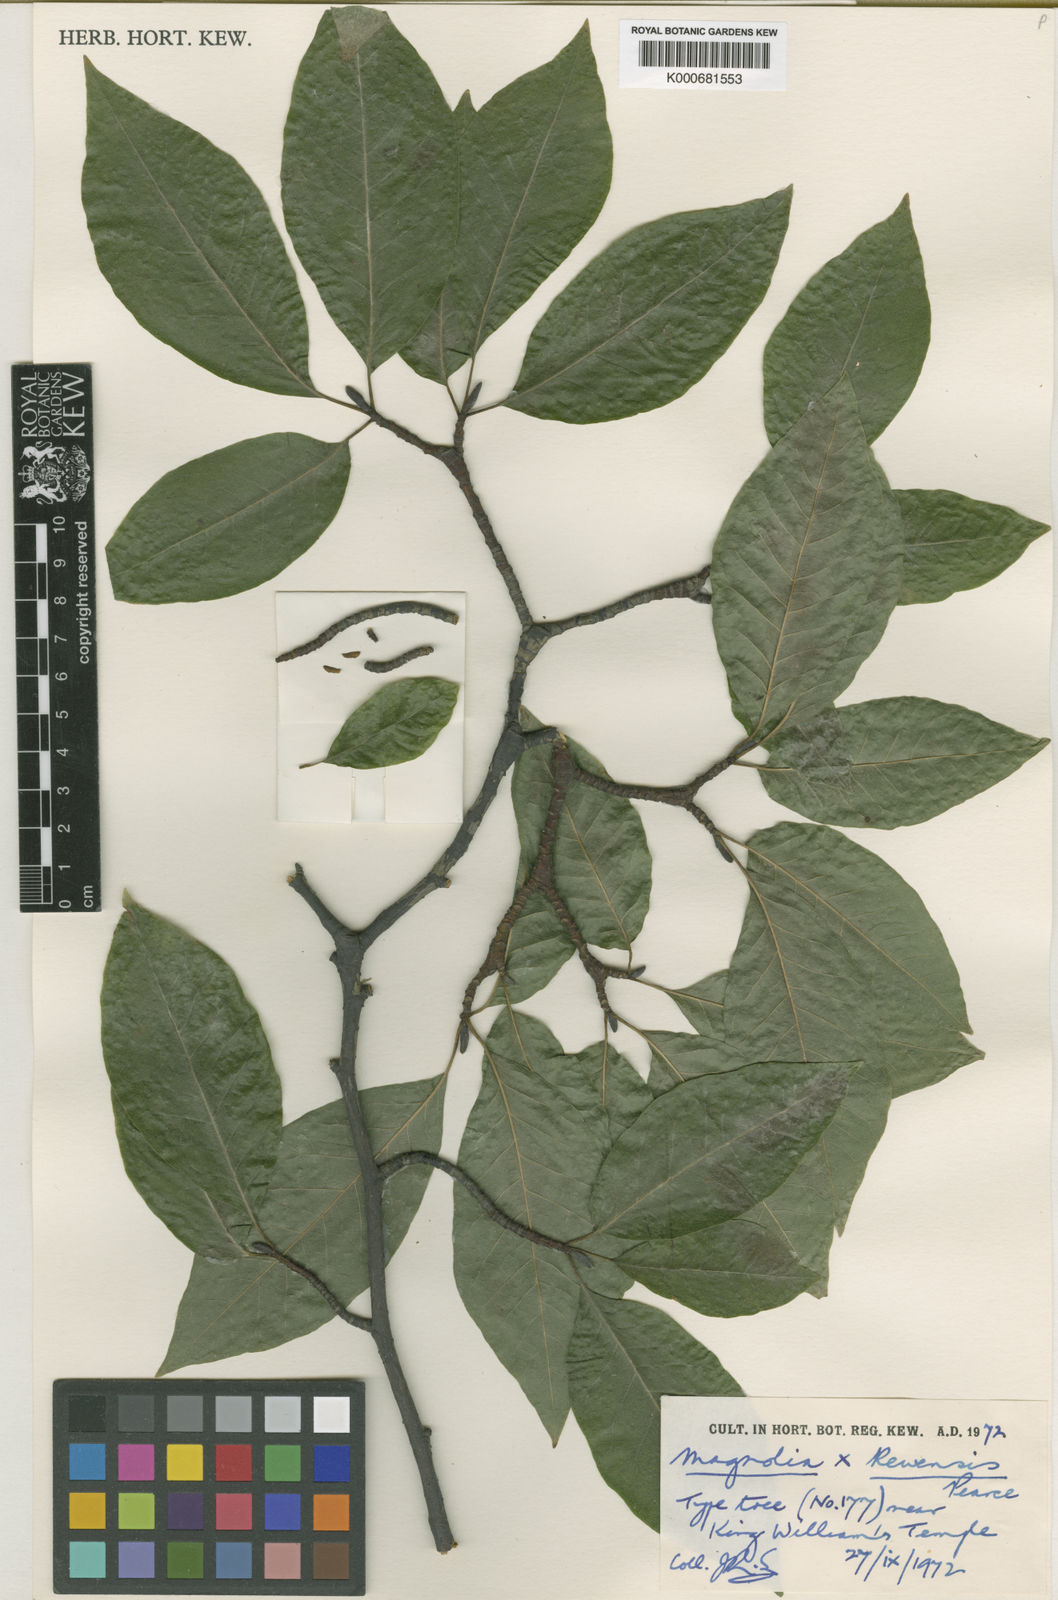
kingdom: Plantae
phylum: Tracheophyta
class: Magnoliopsida
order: Magnoliales
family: Magnoliaceae
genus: Magnolia
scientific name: Magnolia salicifolia
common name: Anise magnolia
